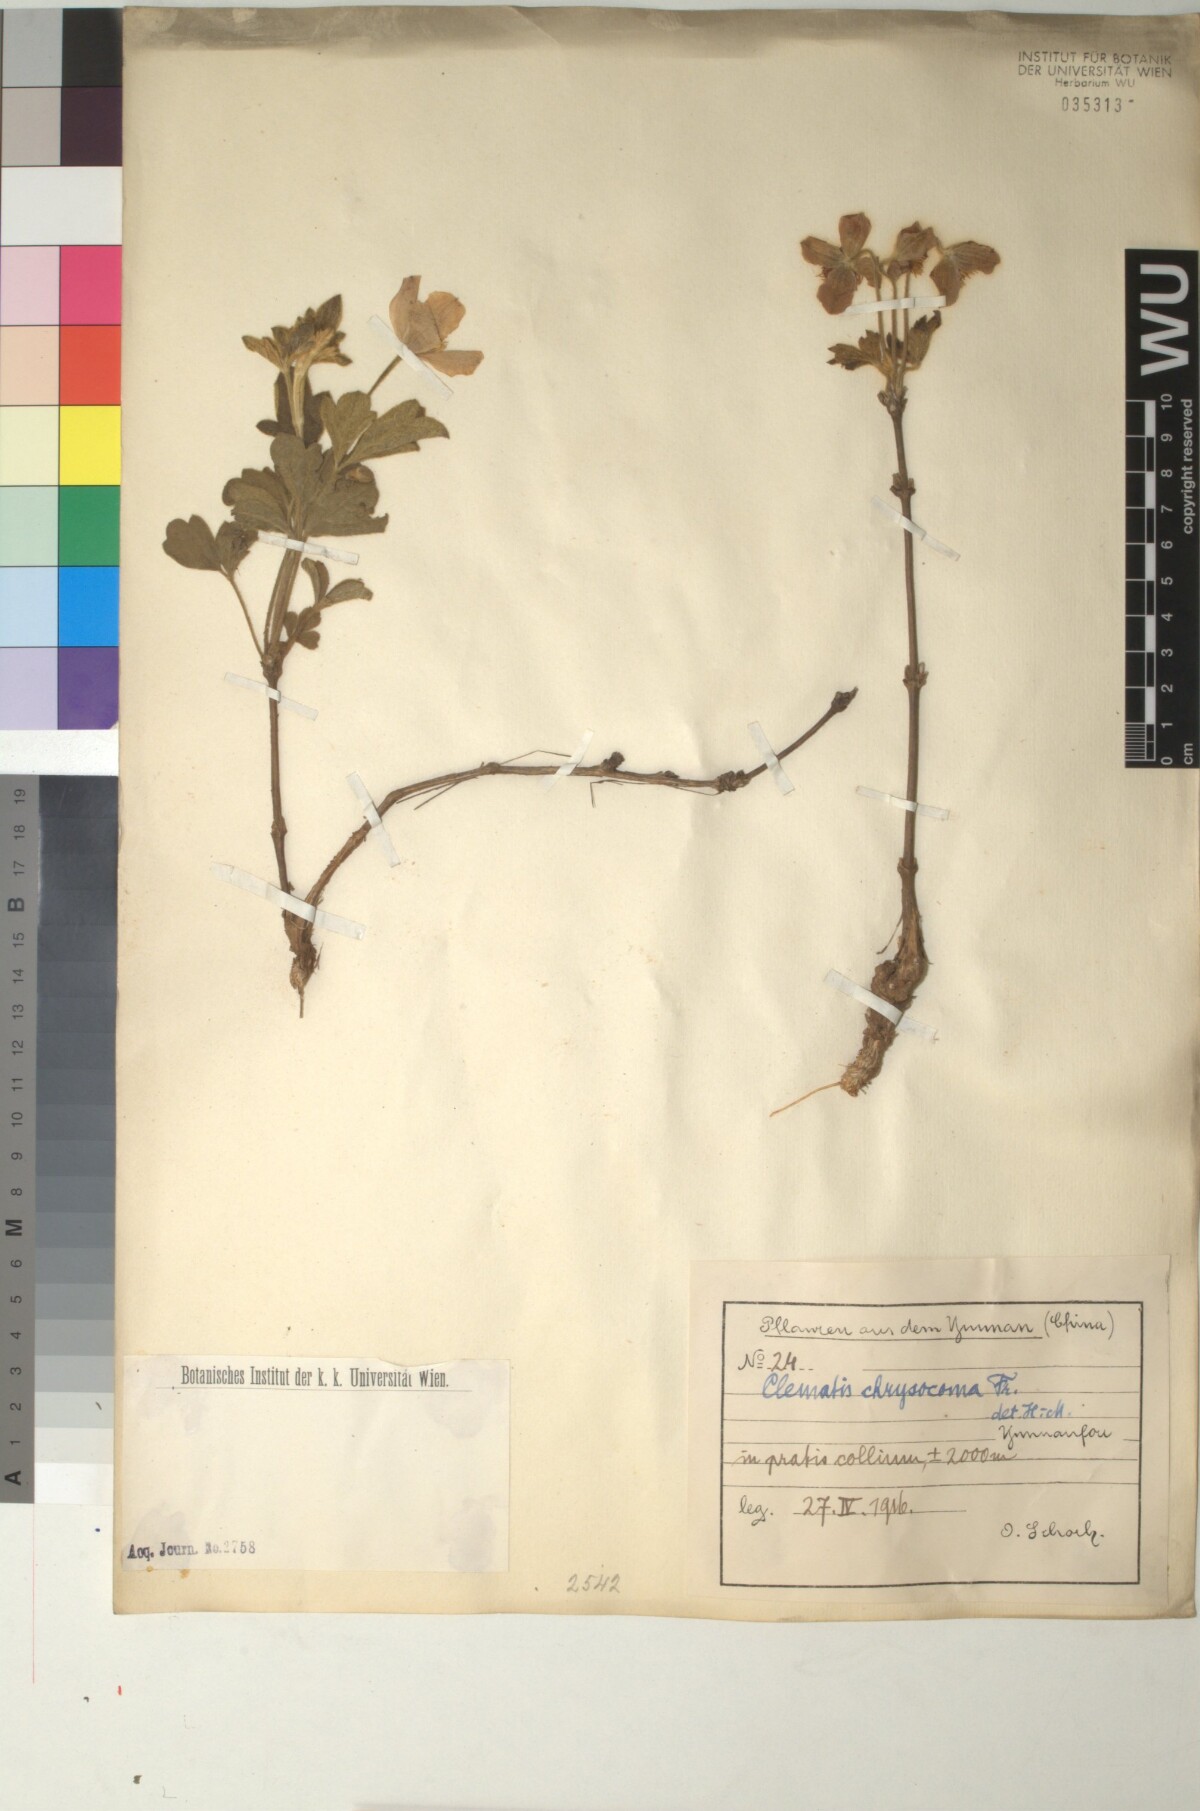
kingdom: Plantae
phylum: Tracheophyta
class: Magnoliopsida
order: Ranunculales
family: Ranunculaceae
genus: Clematis
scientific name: Clematis chrysocoma
